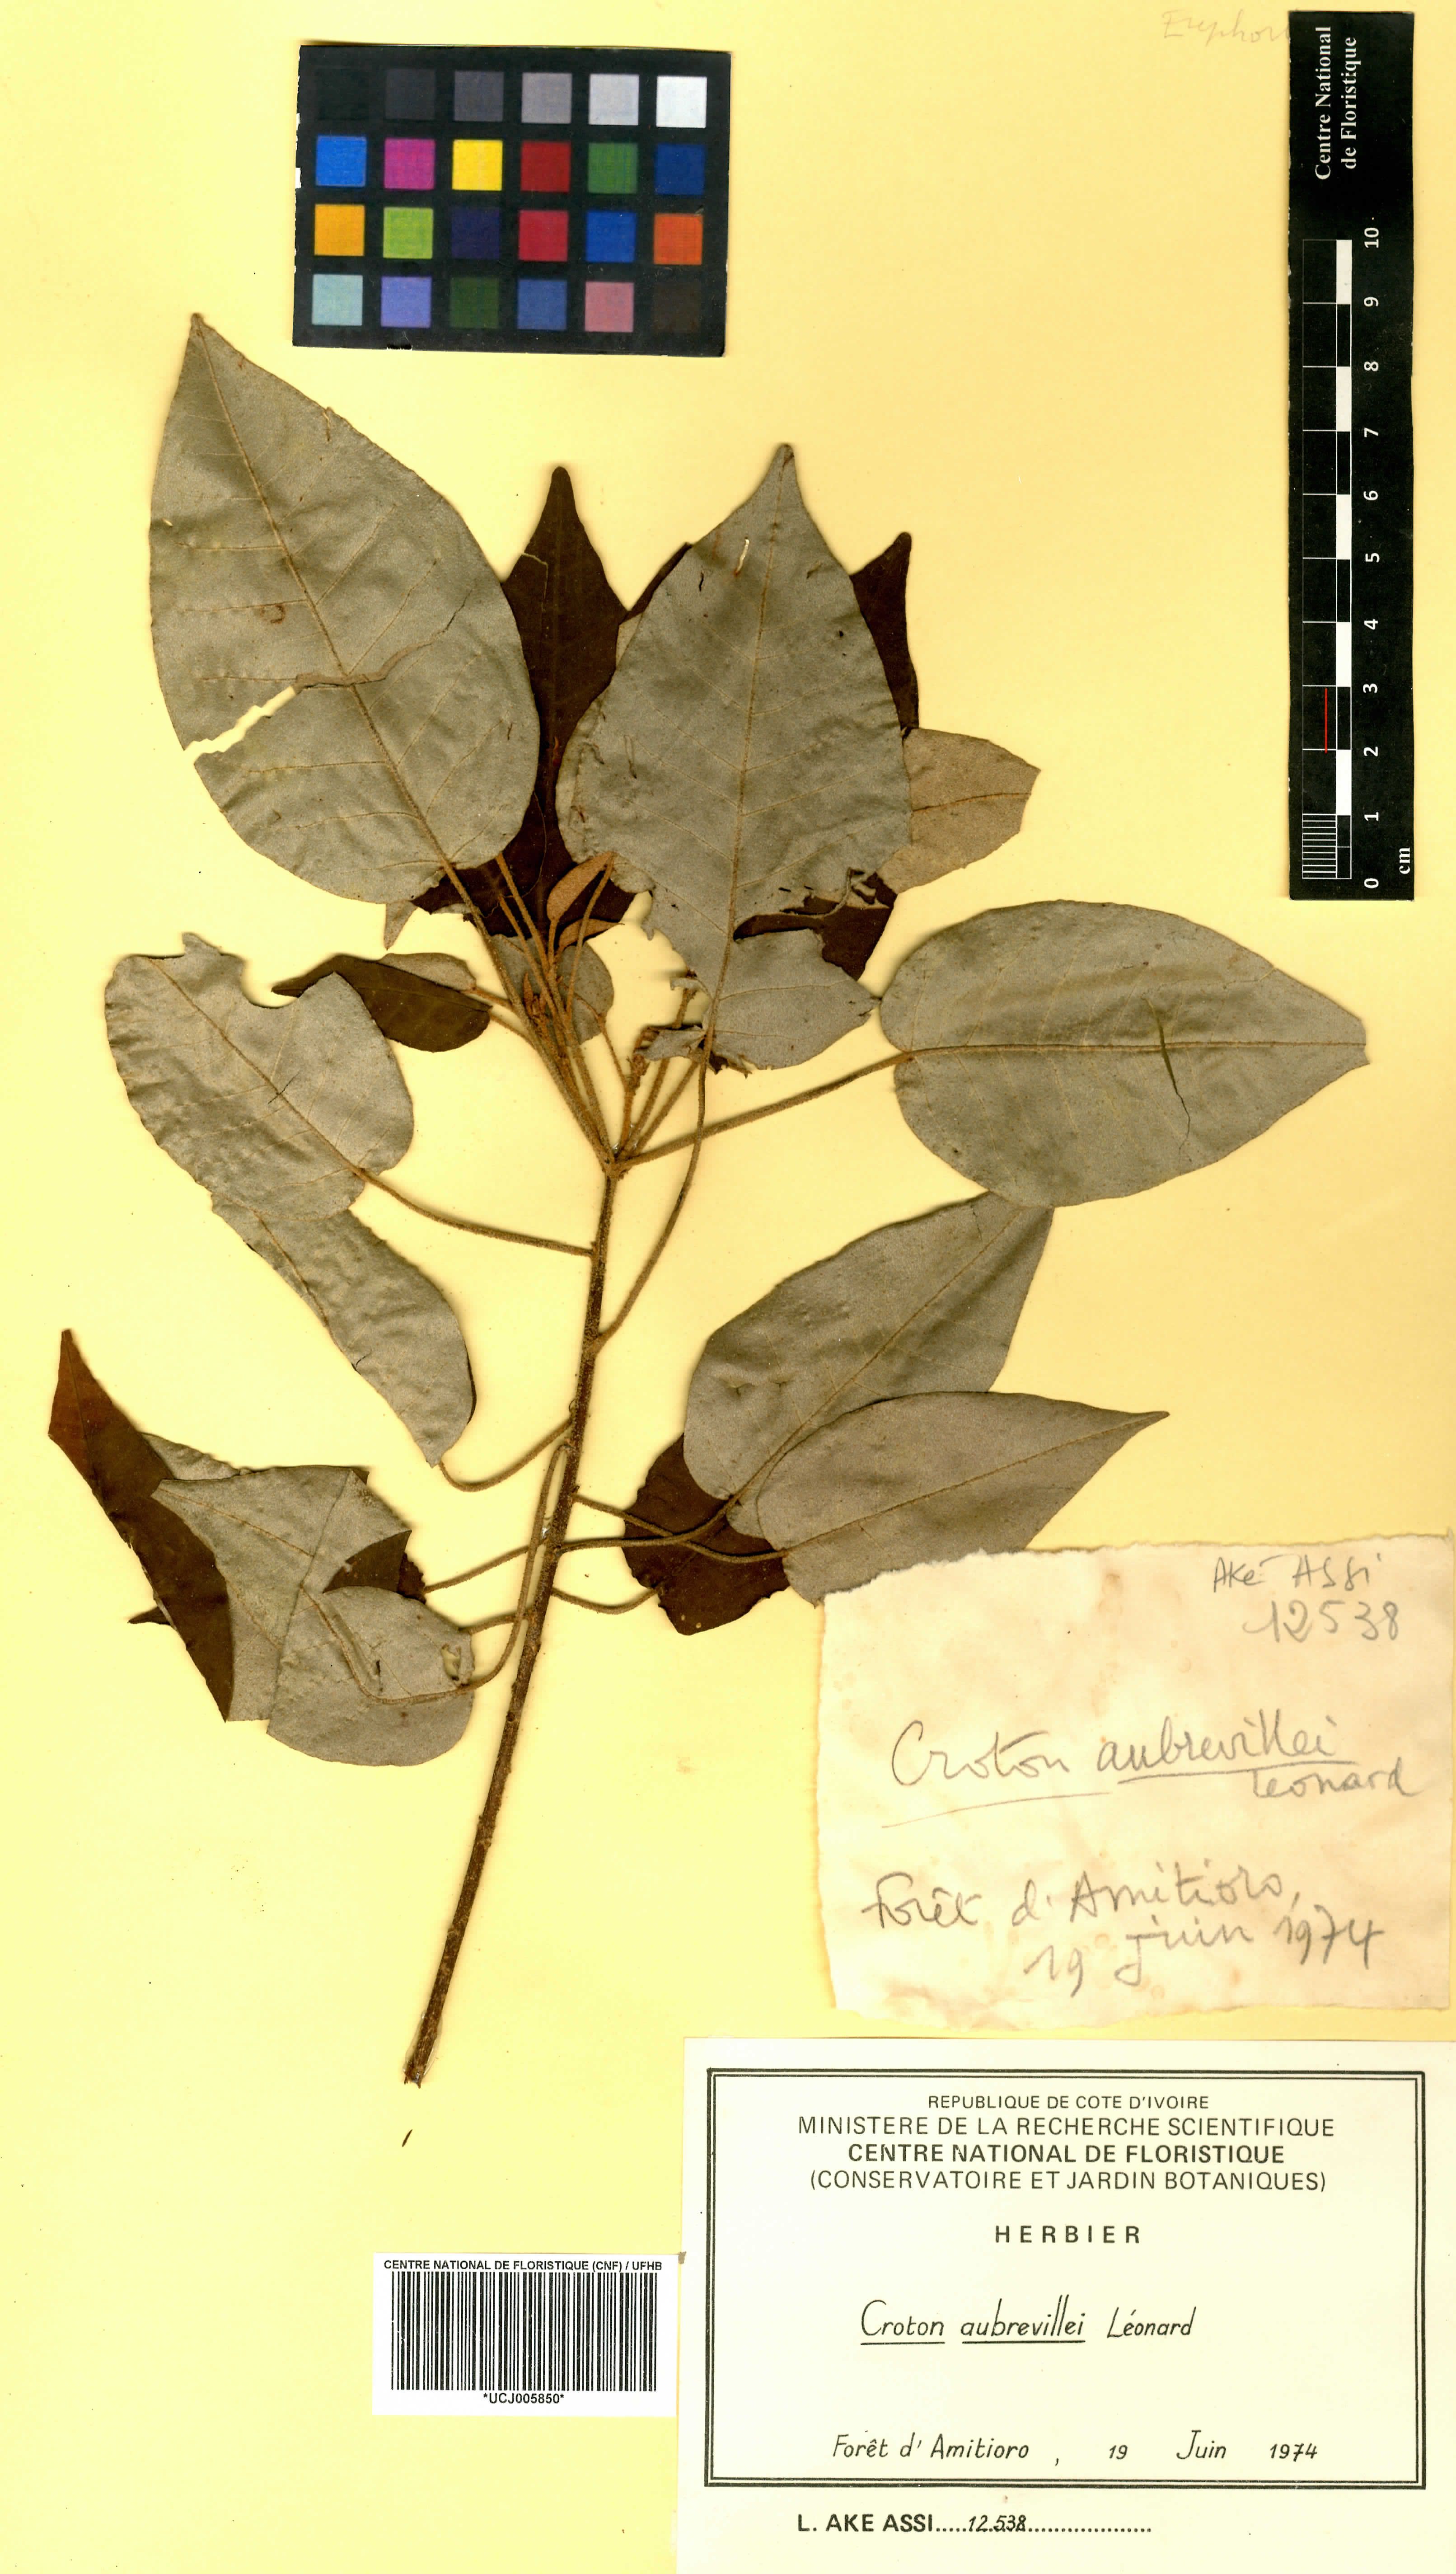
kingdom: Plantae
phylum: Tracheophyta
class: Magnoliopsida
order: Malpighiales
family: Euphorbiaceae
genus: Croton
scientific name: Croton aubrevillei
